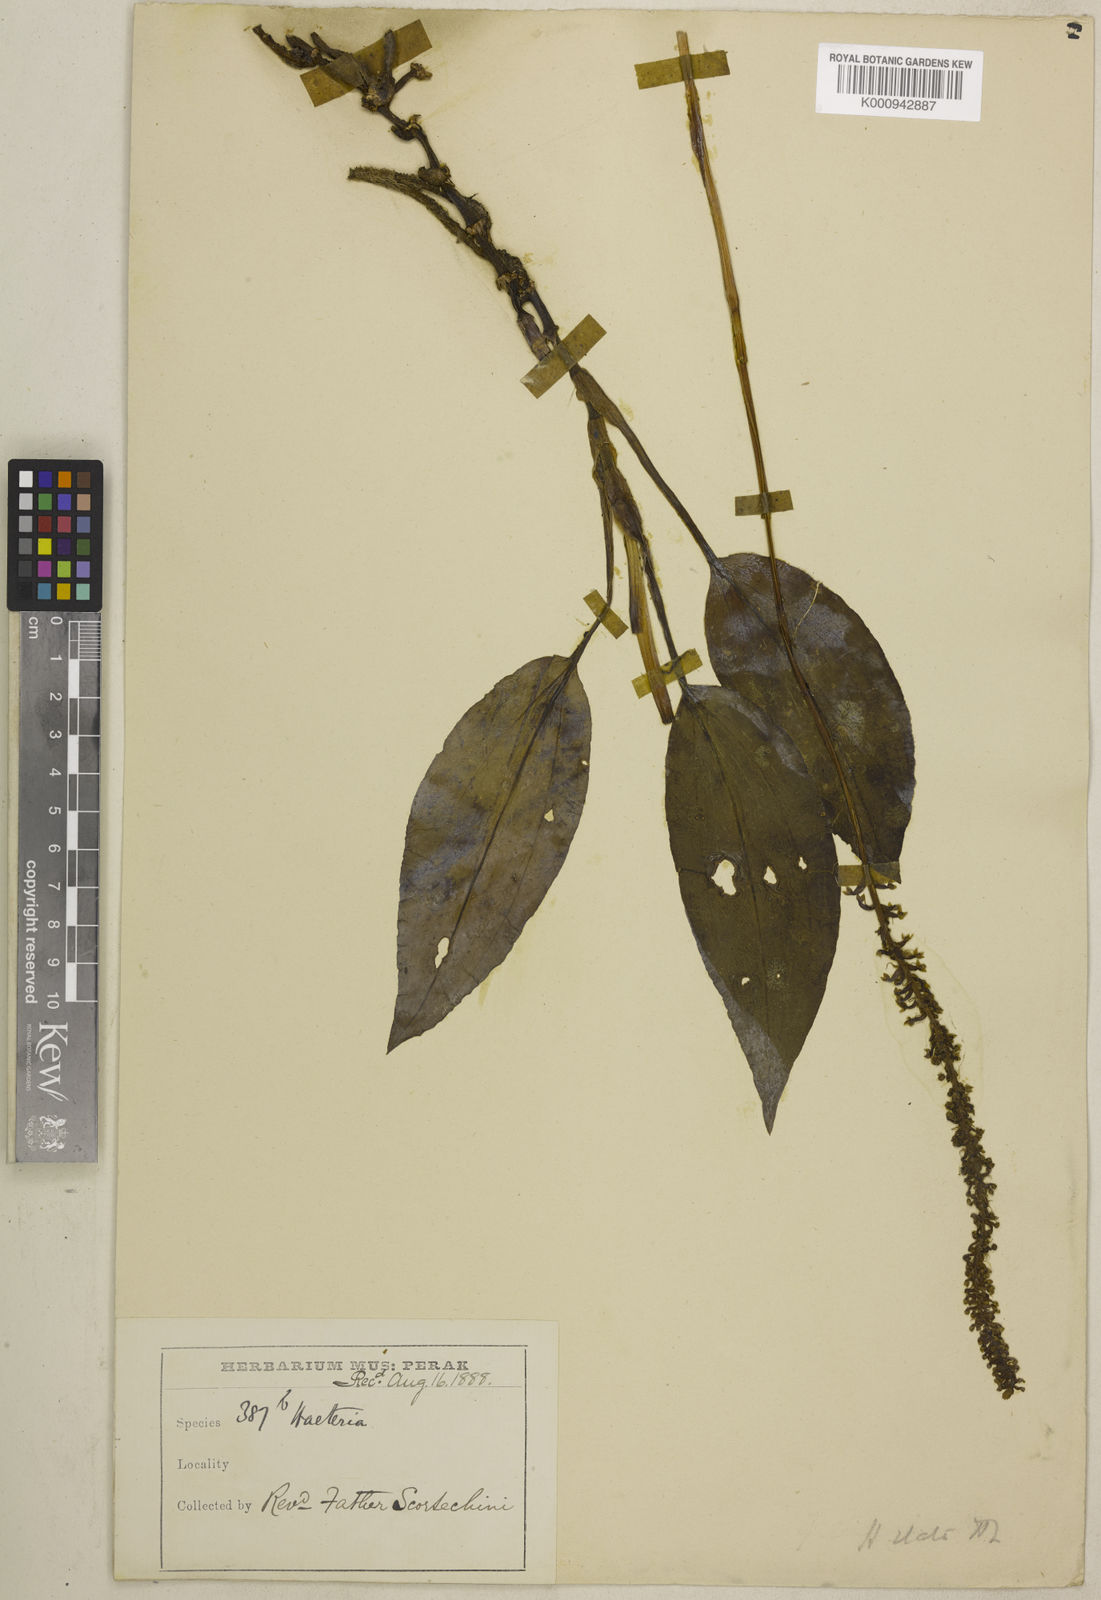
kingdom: Plantae
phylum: Tracheophyta
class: Liliopsida
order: Asparagales
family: Orchidaceae
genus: Hetaeria
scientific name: Hetaeria elata
